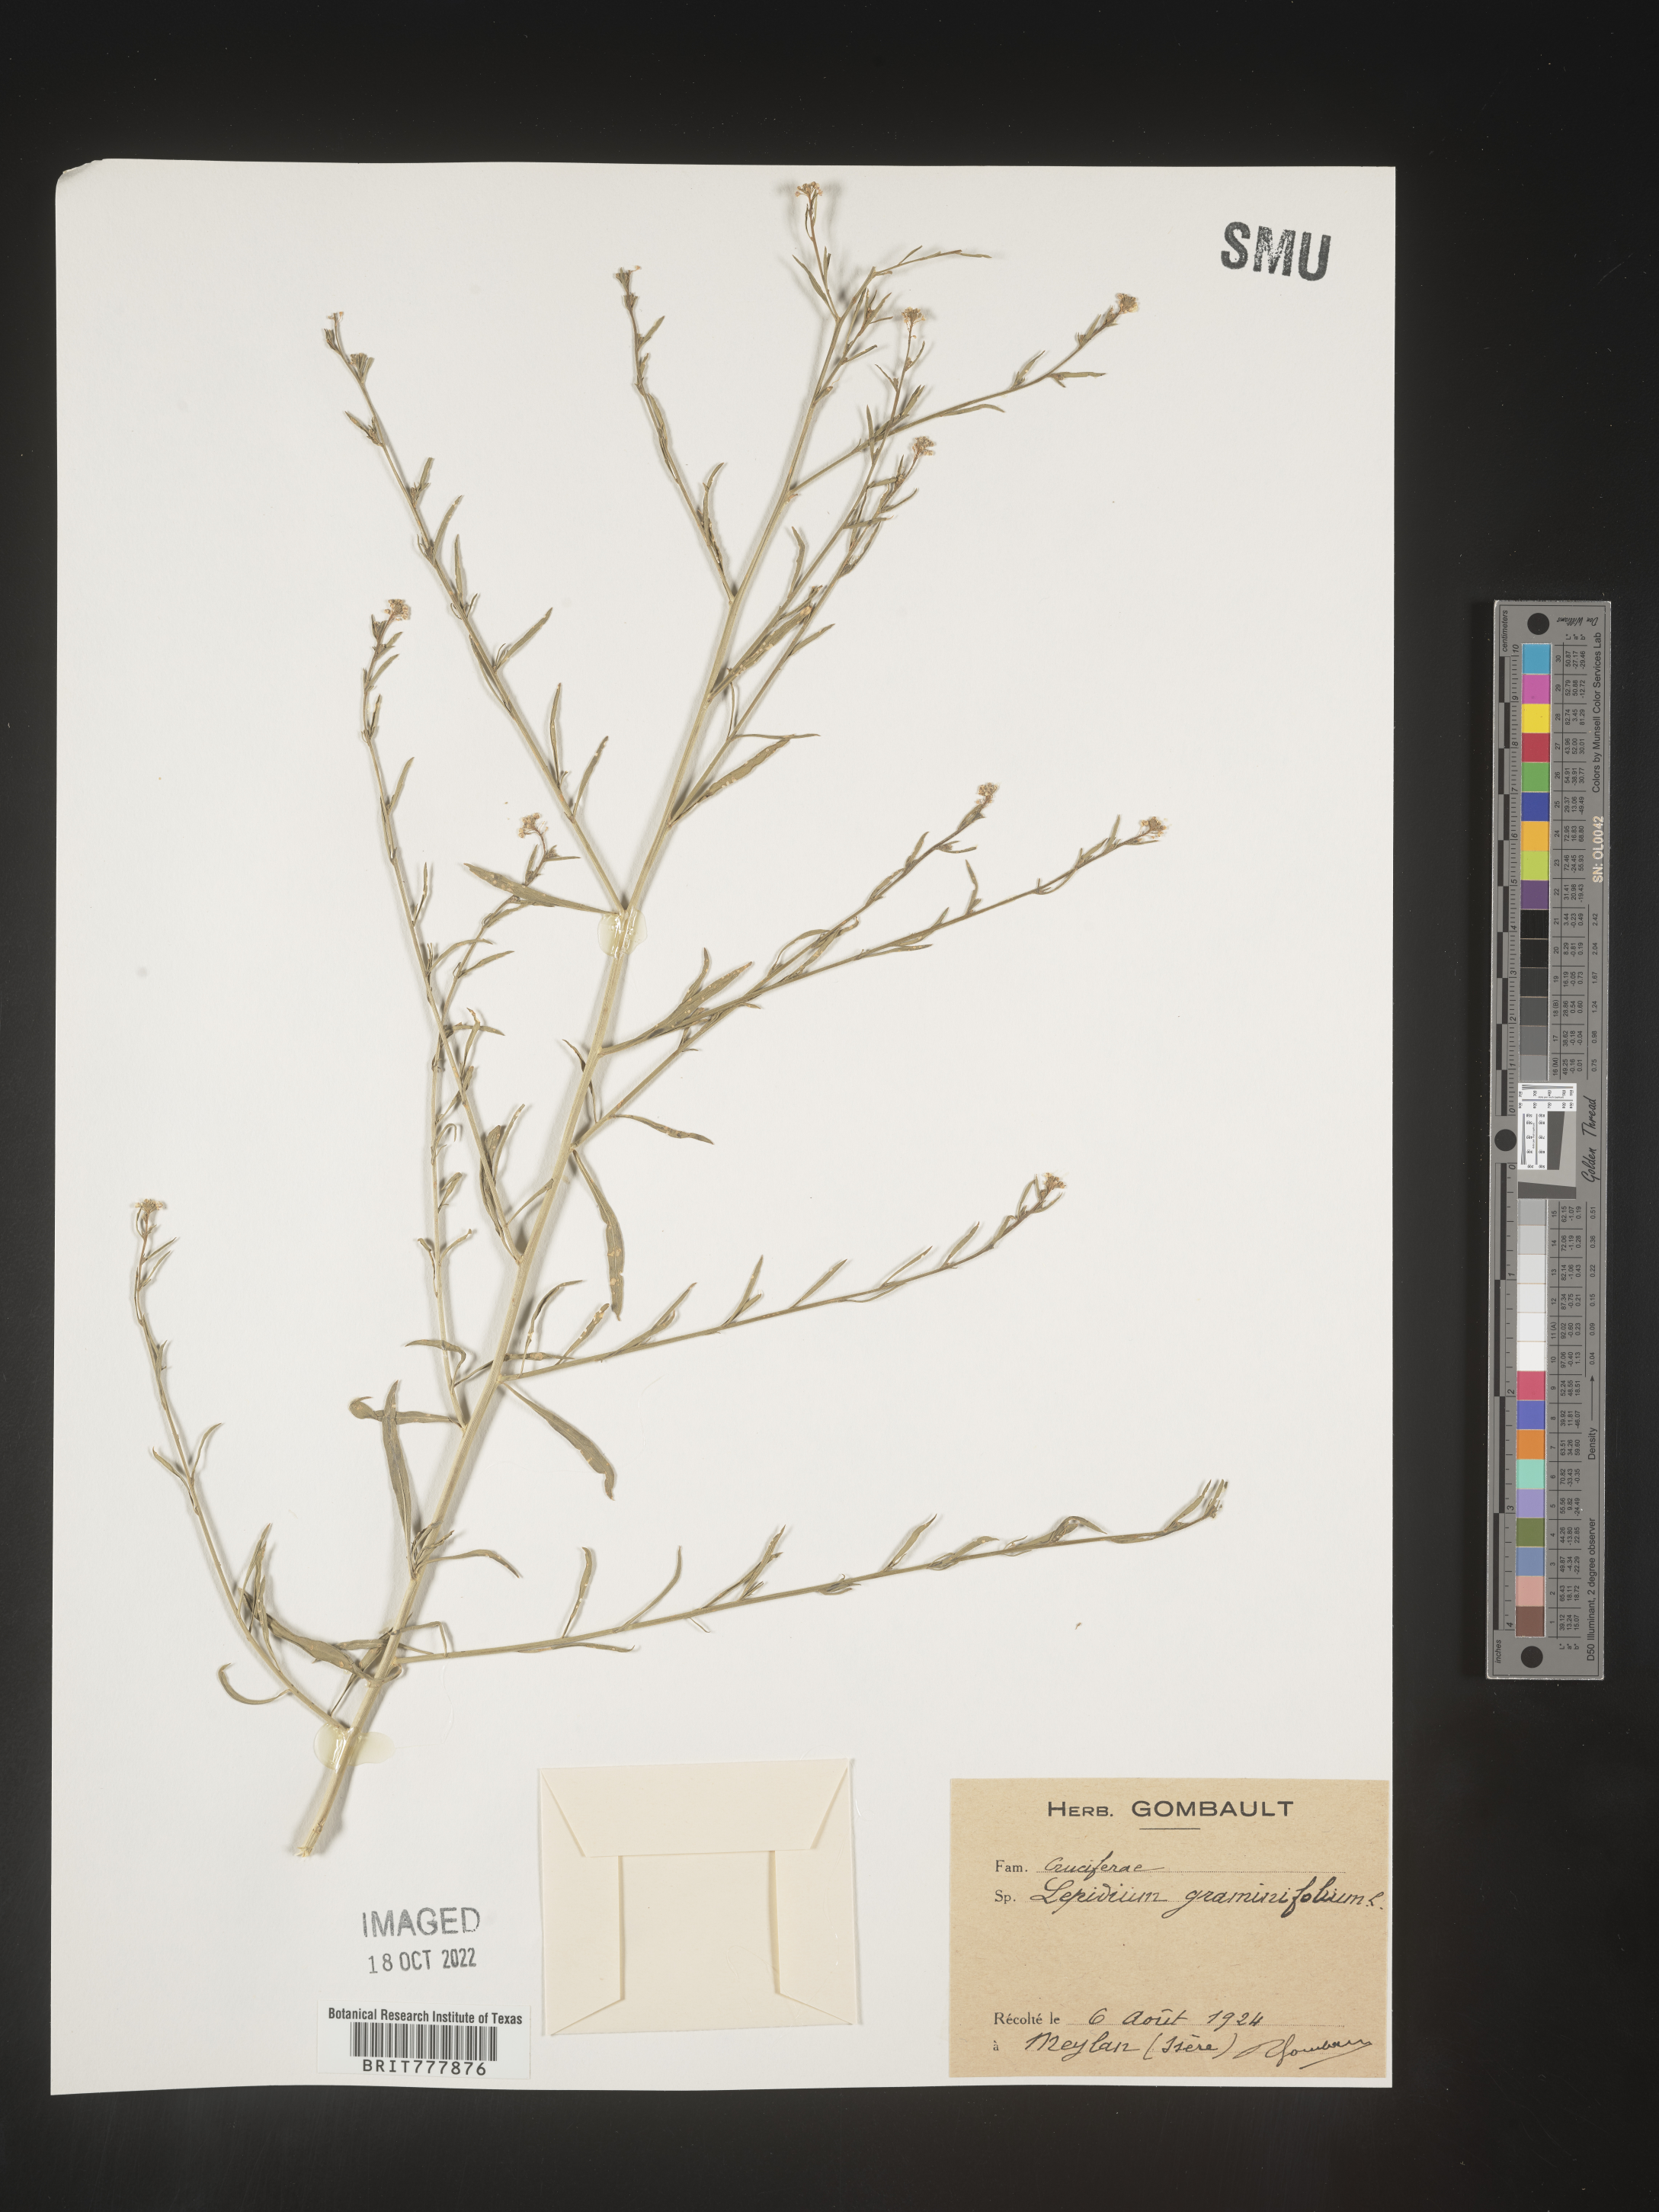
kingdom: Plantae
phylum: Tracheophyta
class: Magnoliopsida
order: Brassicales
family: Brassicaceae
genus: Lepidium
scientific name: Lepidium
